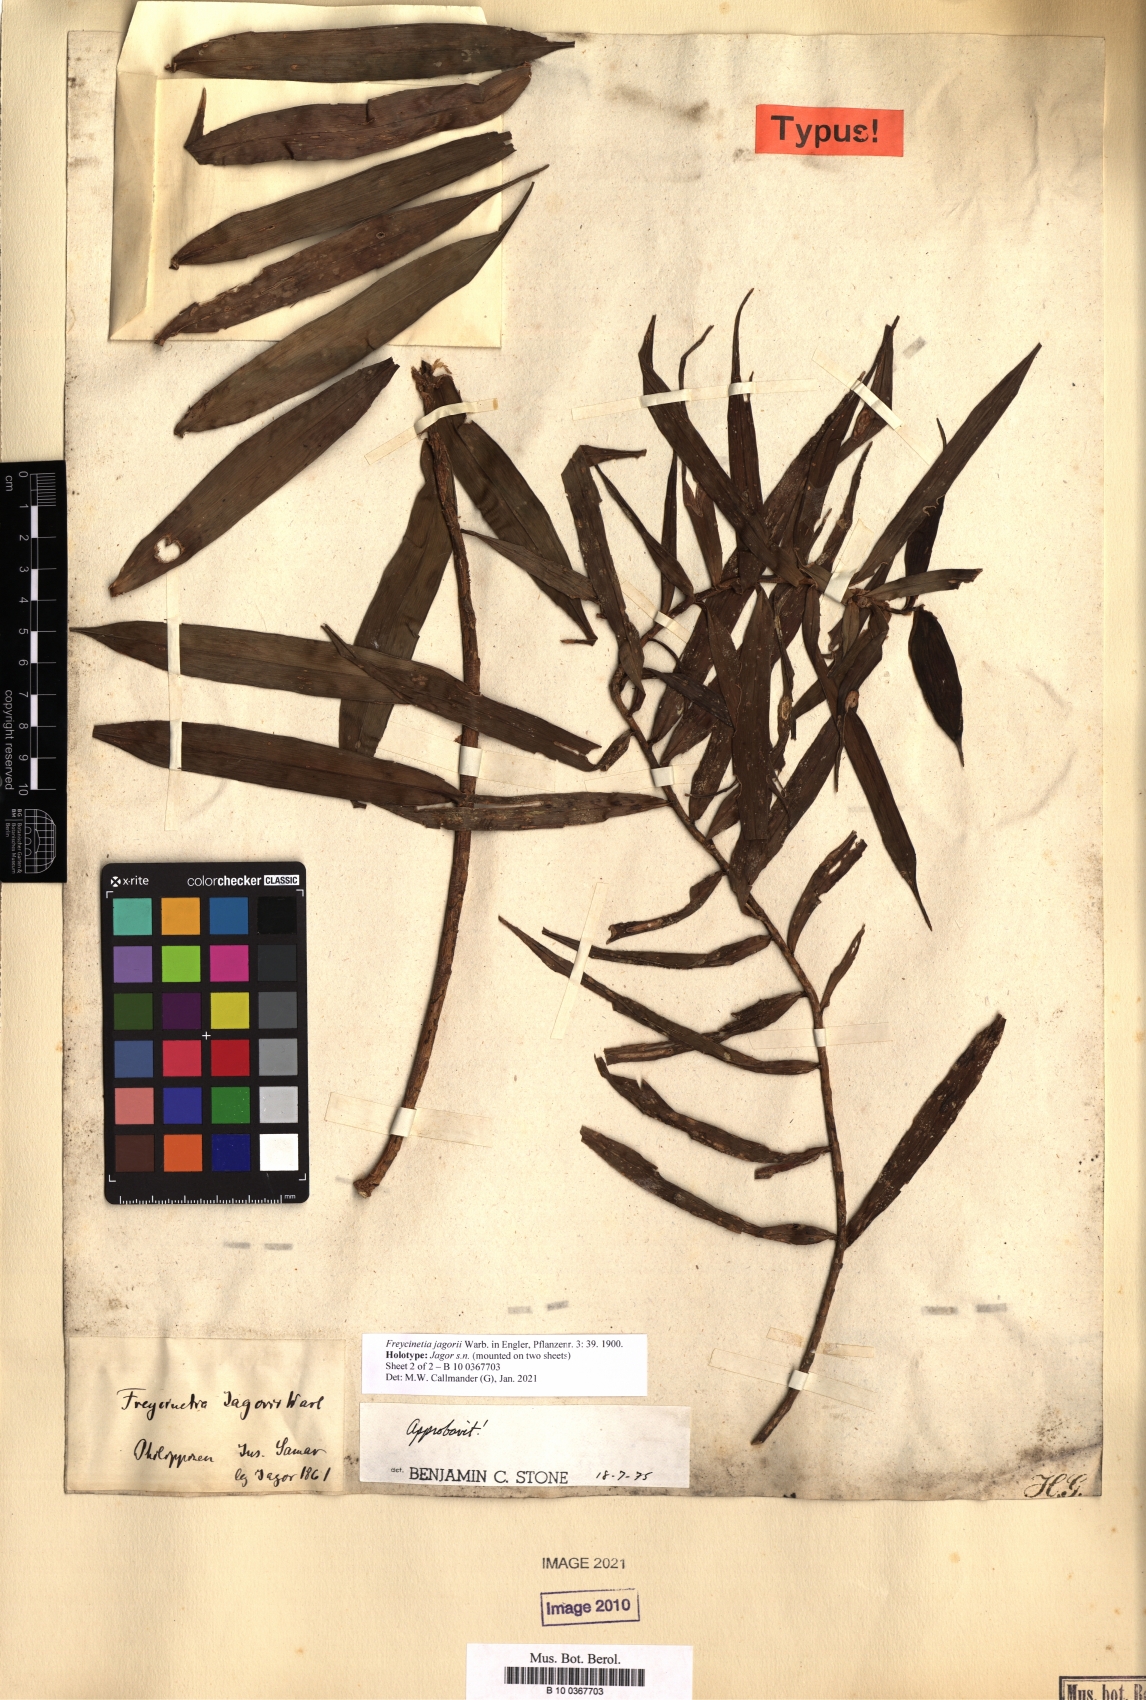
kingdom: Plantae
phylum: Tracheophyta
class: Liliopsida
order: Pandanales
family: Pandanaceae
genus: Freycinetia
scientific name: Freycinetia jagorii
